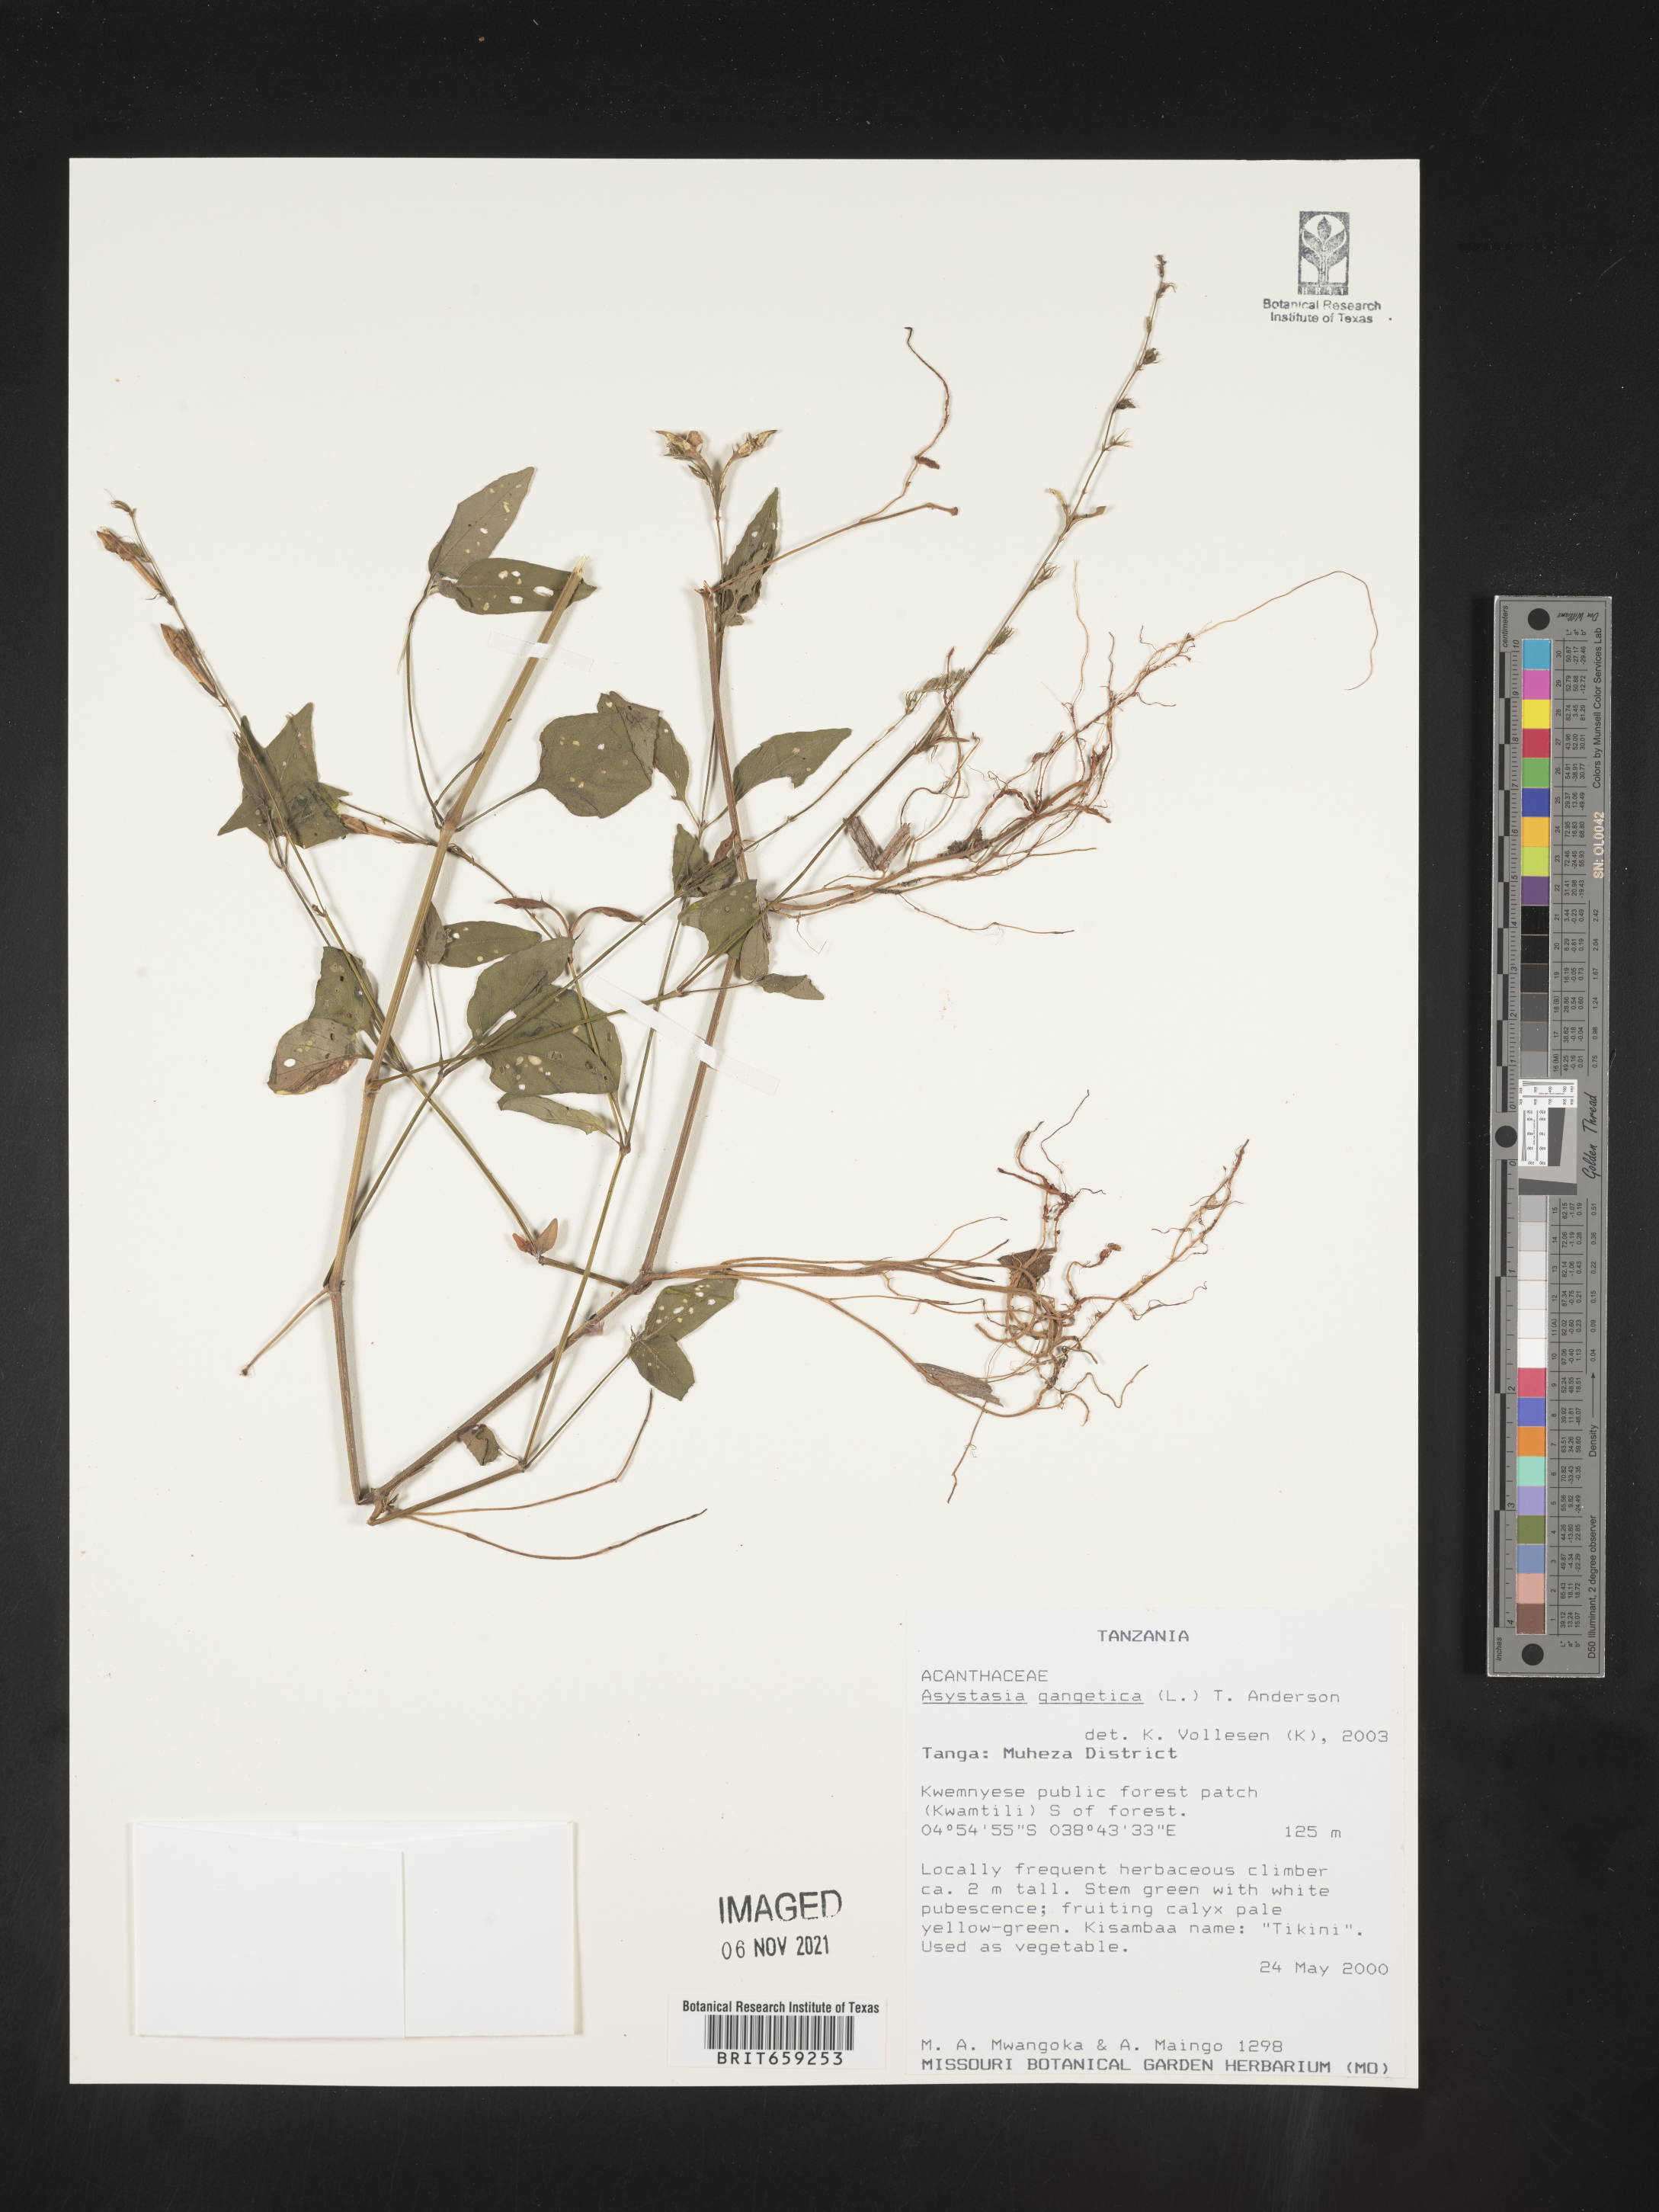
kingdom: Plantae
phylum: Tracheophyta
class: Magnoliopsida
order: Lamiales
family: Acanthaceae
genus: Asystasia
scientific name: Asystasia gangetica
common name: Chinese violet
